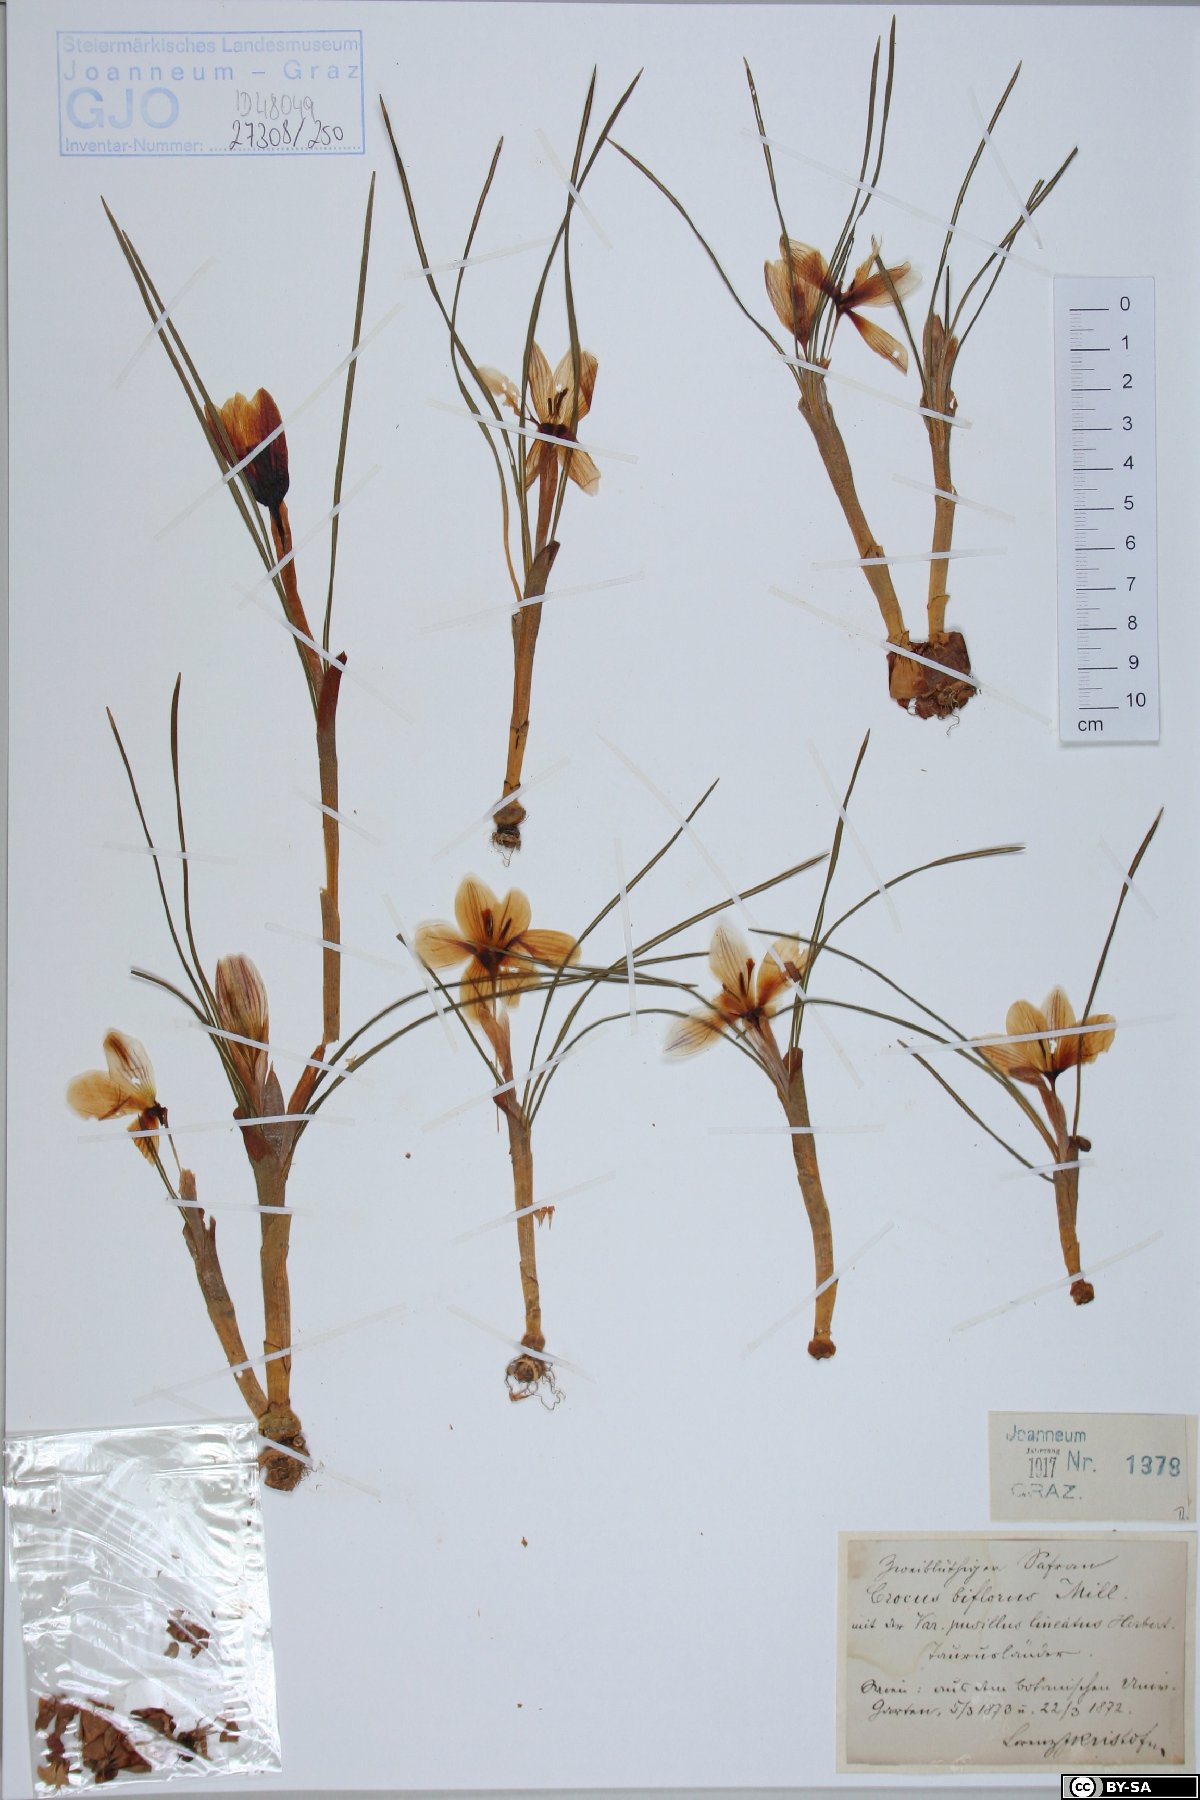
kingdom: Plantae
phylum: Tracheophyta
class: Liliopsida
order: Asparagales
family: Iridaceae
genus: Crocus
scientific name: Crocus biflorus
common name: Silvery crocus
